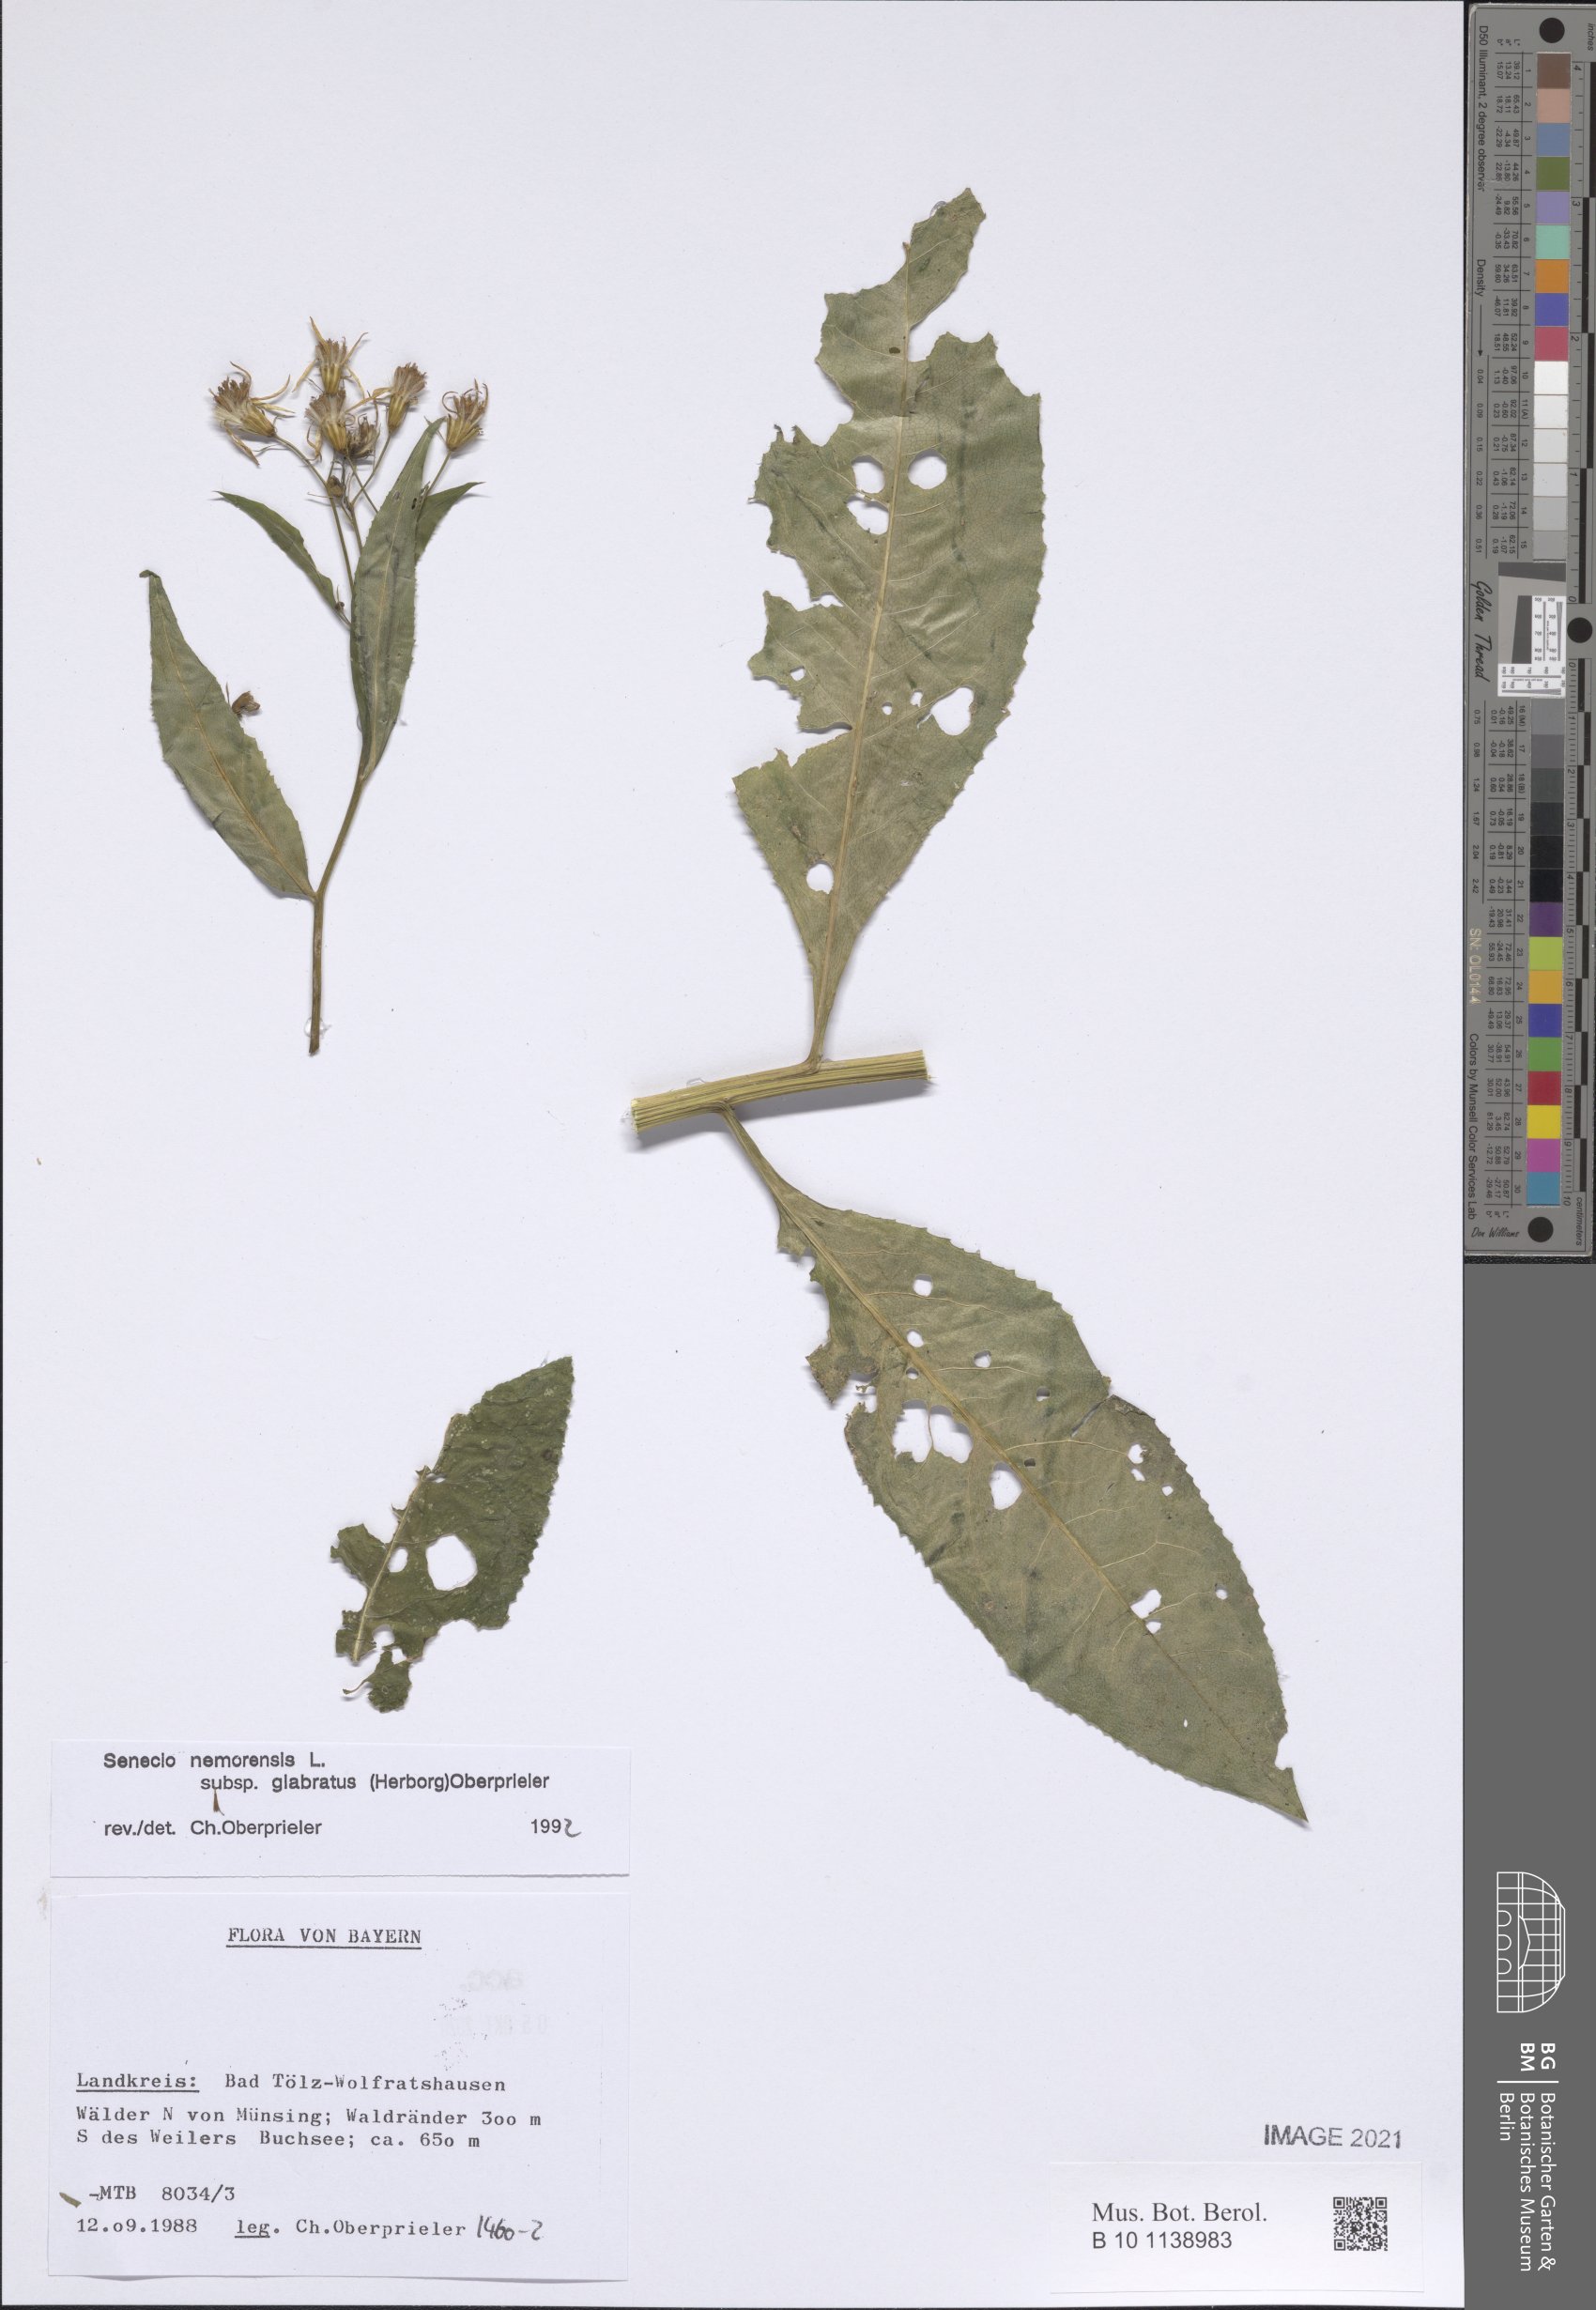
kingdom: Plantae
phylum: Tracheophyta
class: Magnoliopsida
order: Asterales
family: Asteraceae
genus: Senecio
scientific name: Senecio germanicus
